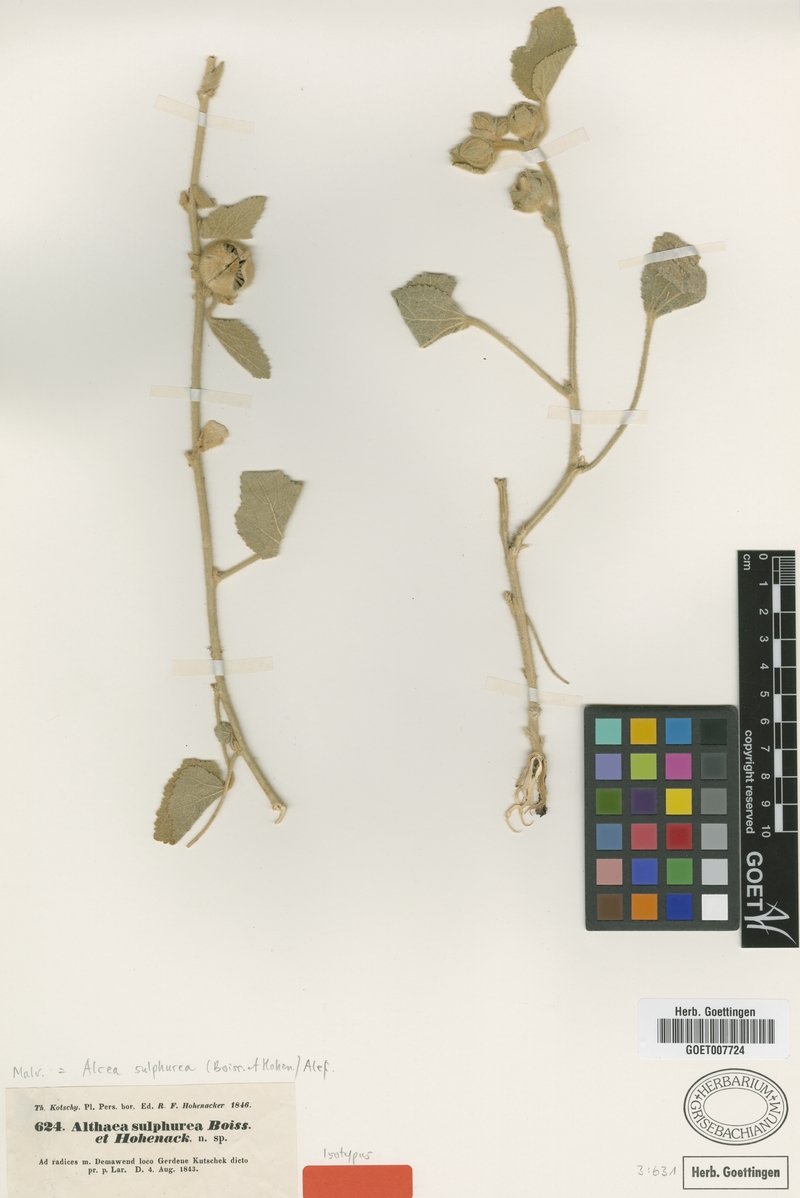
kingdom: Plantae
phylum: Tracheophyta
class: Magnoliopsida
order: Malvales
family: Malvaceae
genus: Alcea
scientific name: Alcea sulphurea
